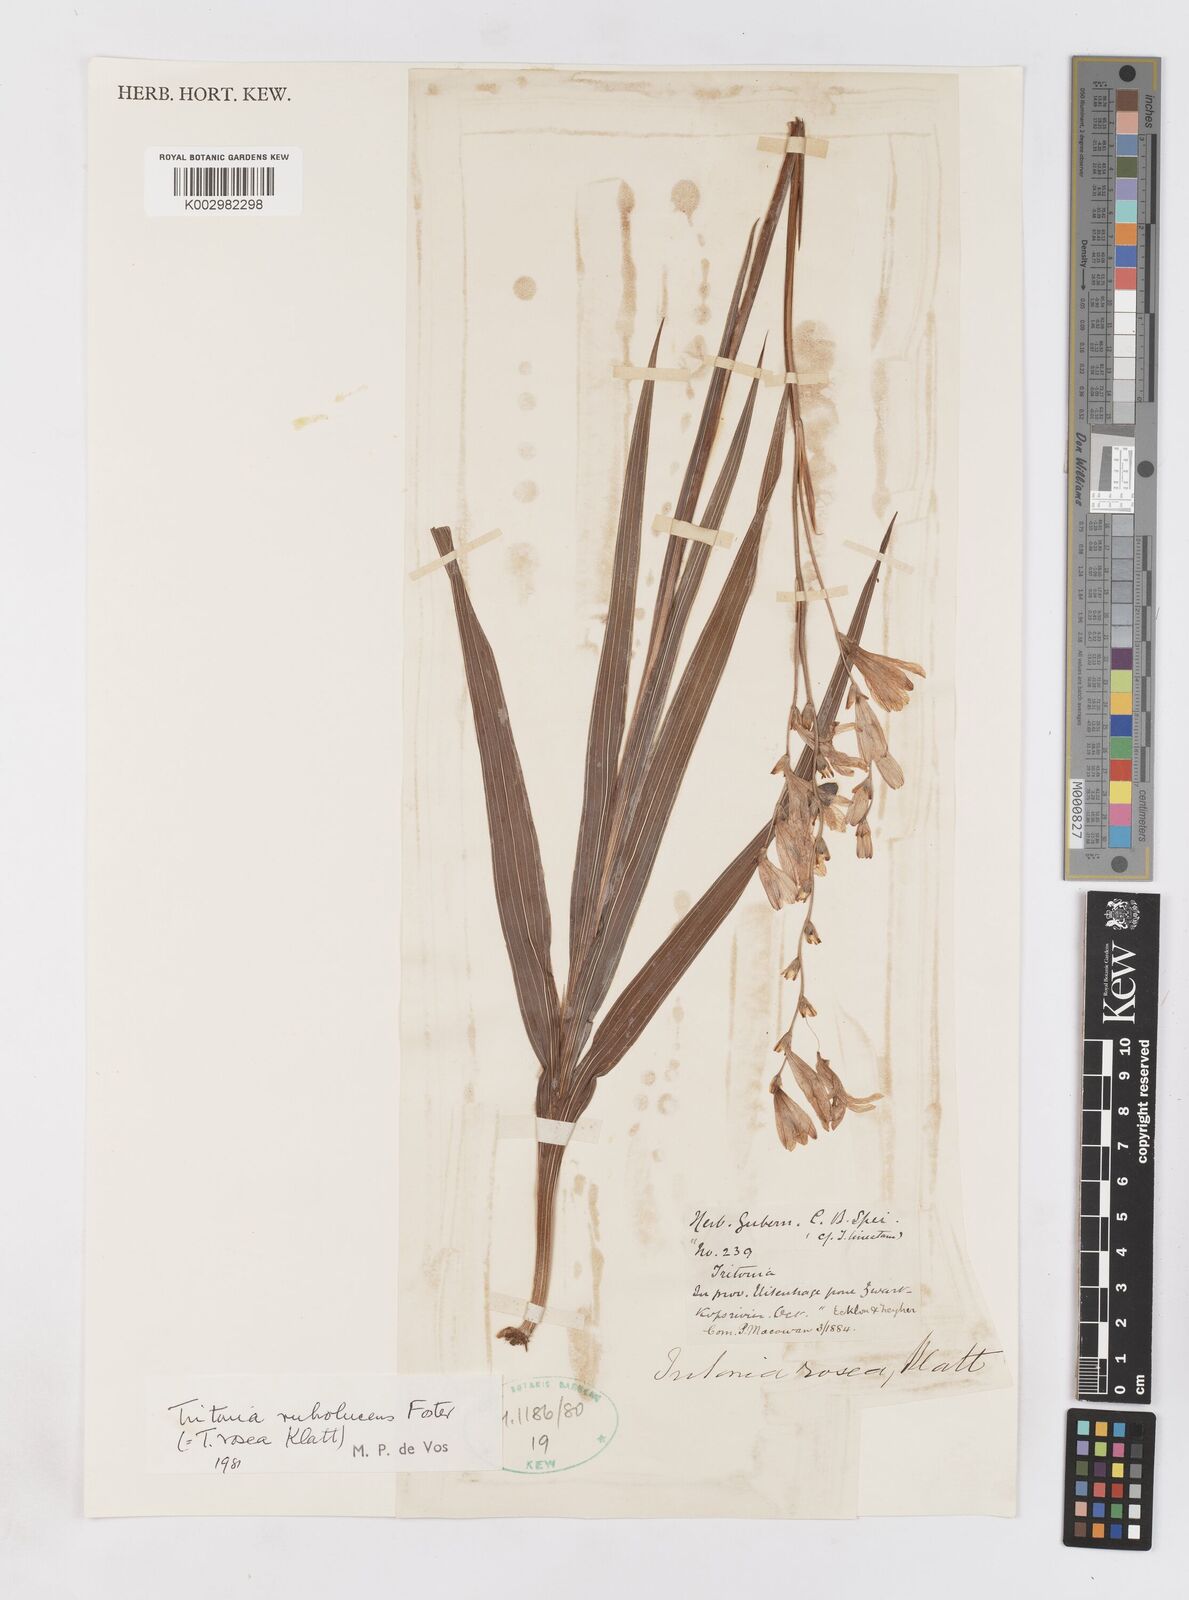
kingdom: Plantae
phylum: Tracheophyta
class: Liliopsida
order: Asparagales
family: Iridaceae
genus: Tritonia
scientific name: Tritonia disticha
